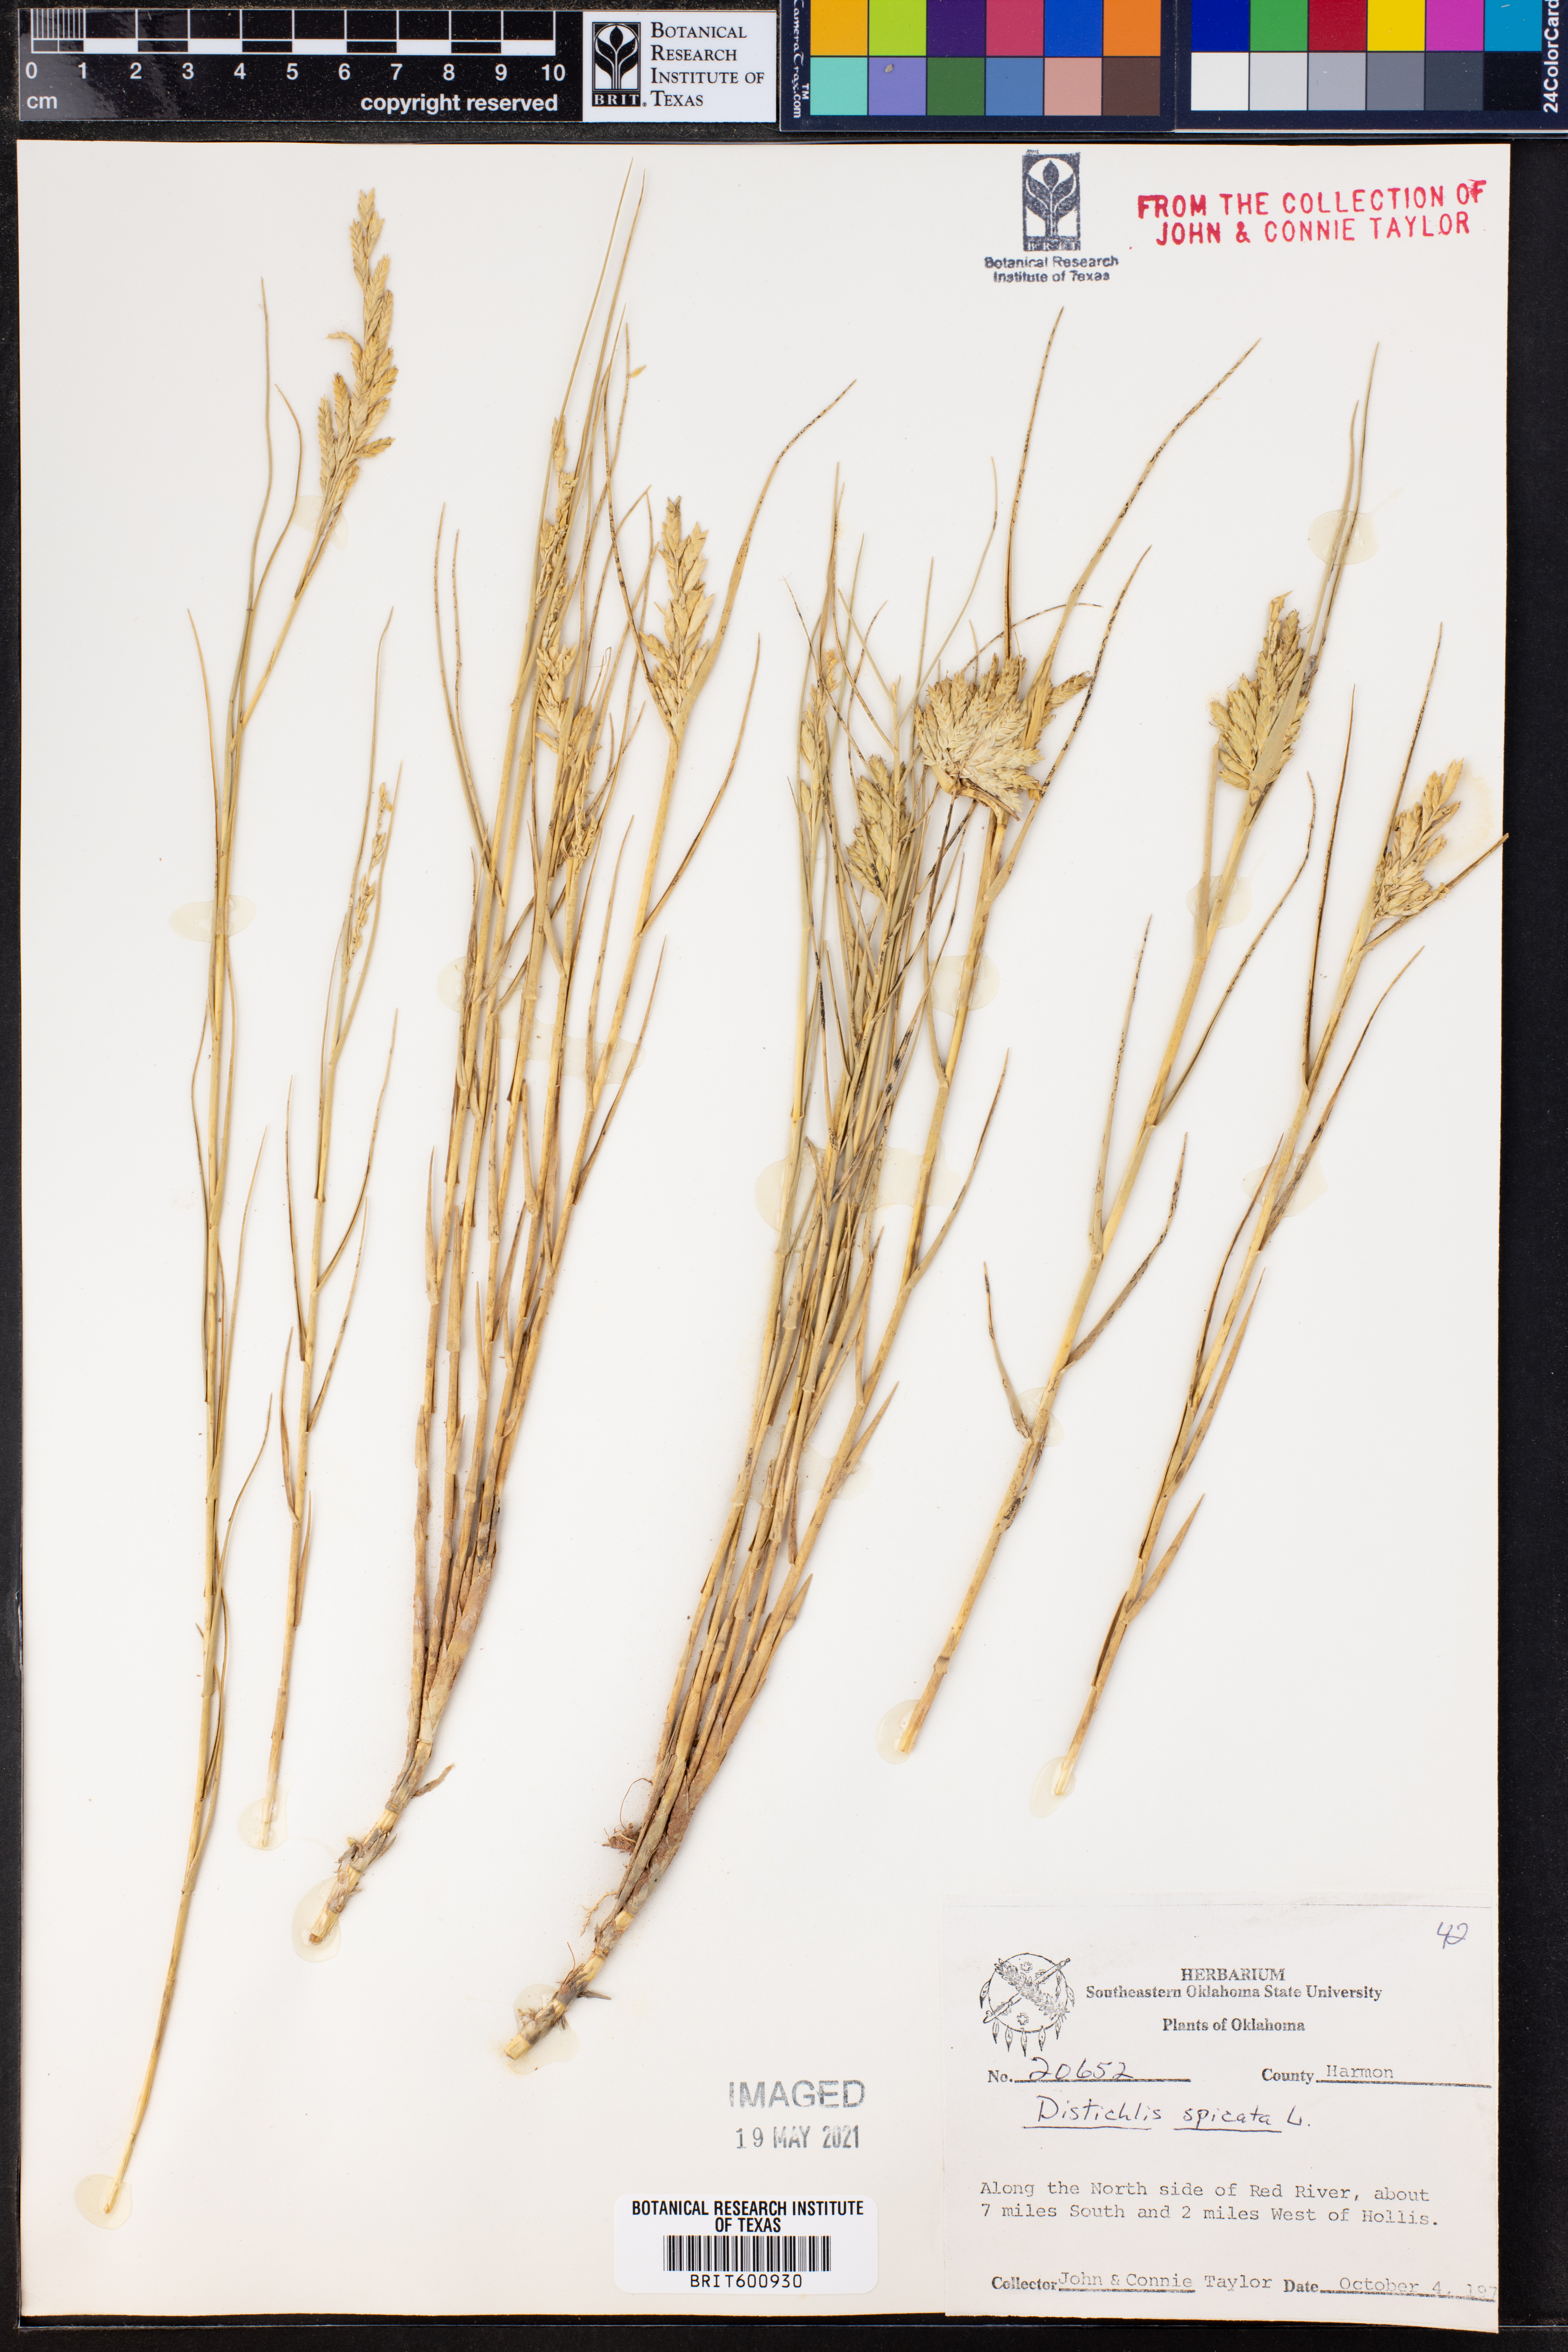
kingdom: Plantae
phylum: Tracheophyta
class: Liliopsida
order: Poales
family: Poaceae
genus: Distichlis
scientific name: Distichlis spicata
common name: Saltgrass
